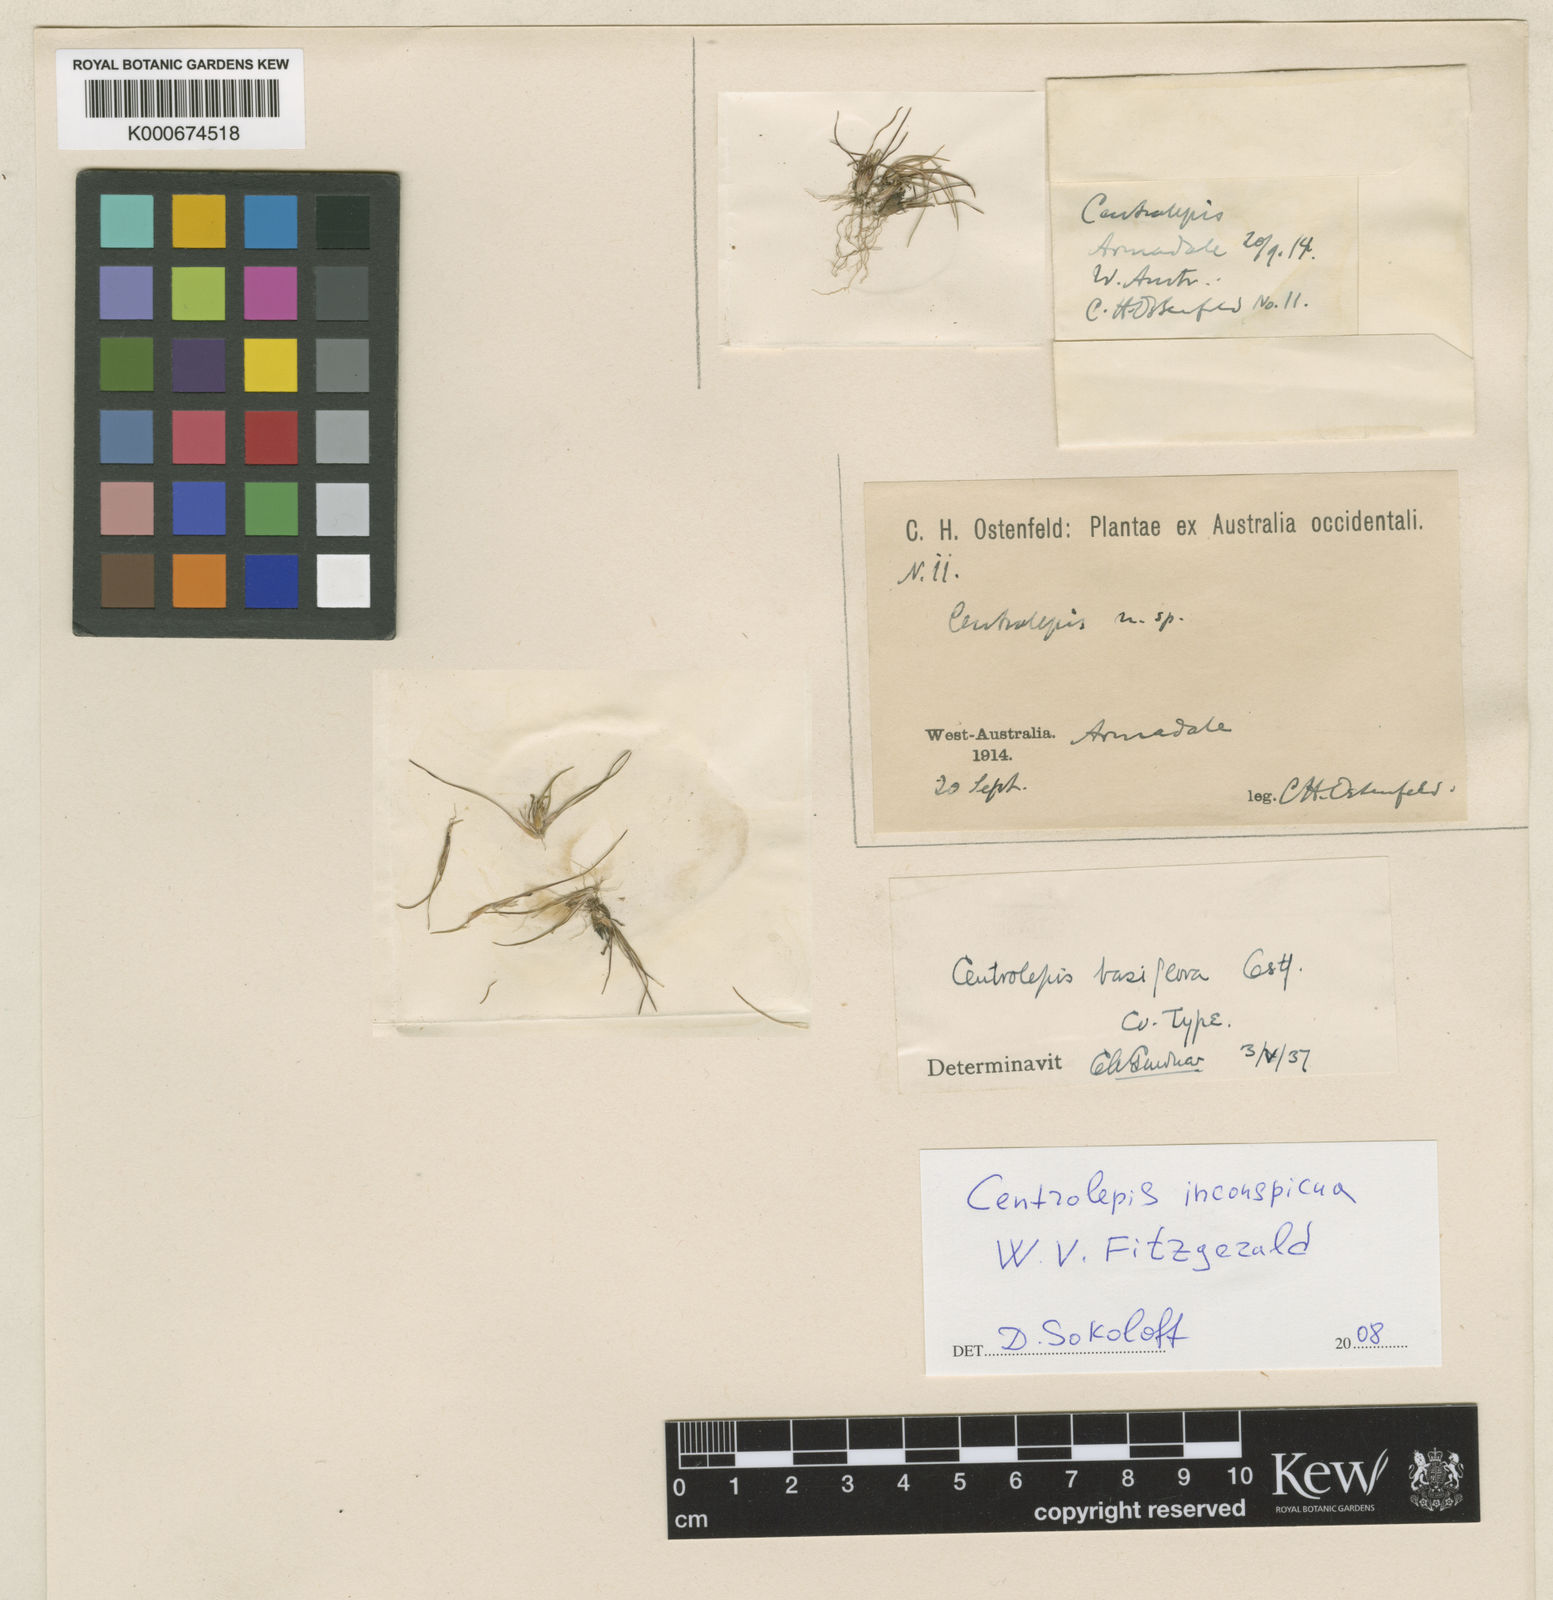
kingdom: Plantae
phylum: Tracheophyta
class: Liliopsida
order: Poales
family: Restionaceae
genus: Centrolepis
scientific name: Centrolepis inconspicua
